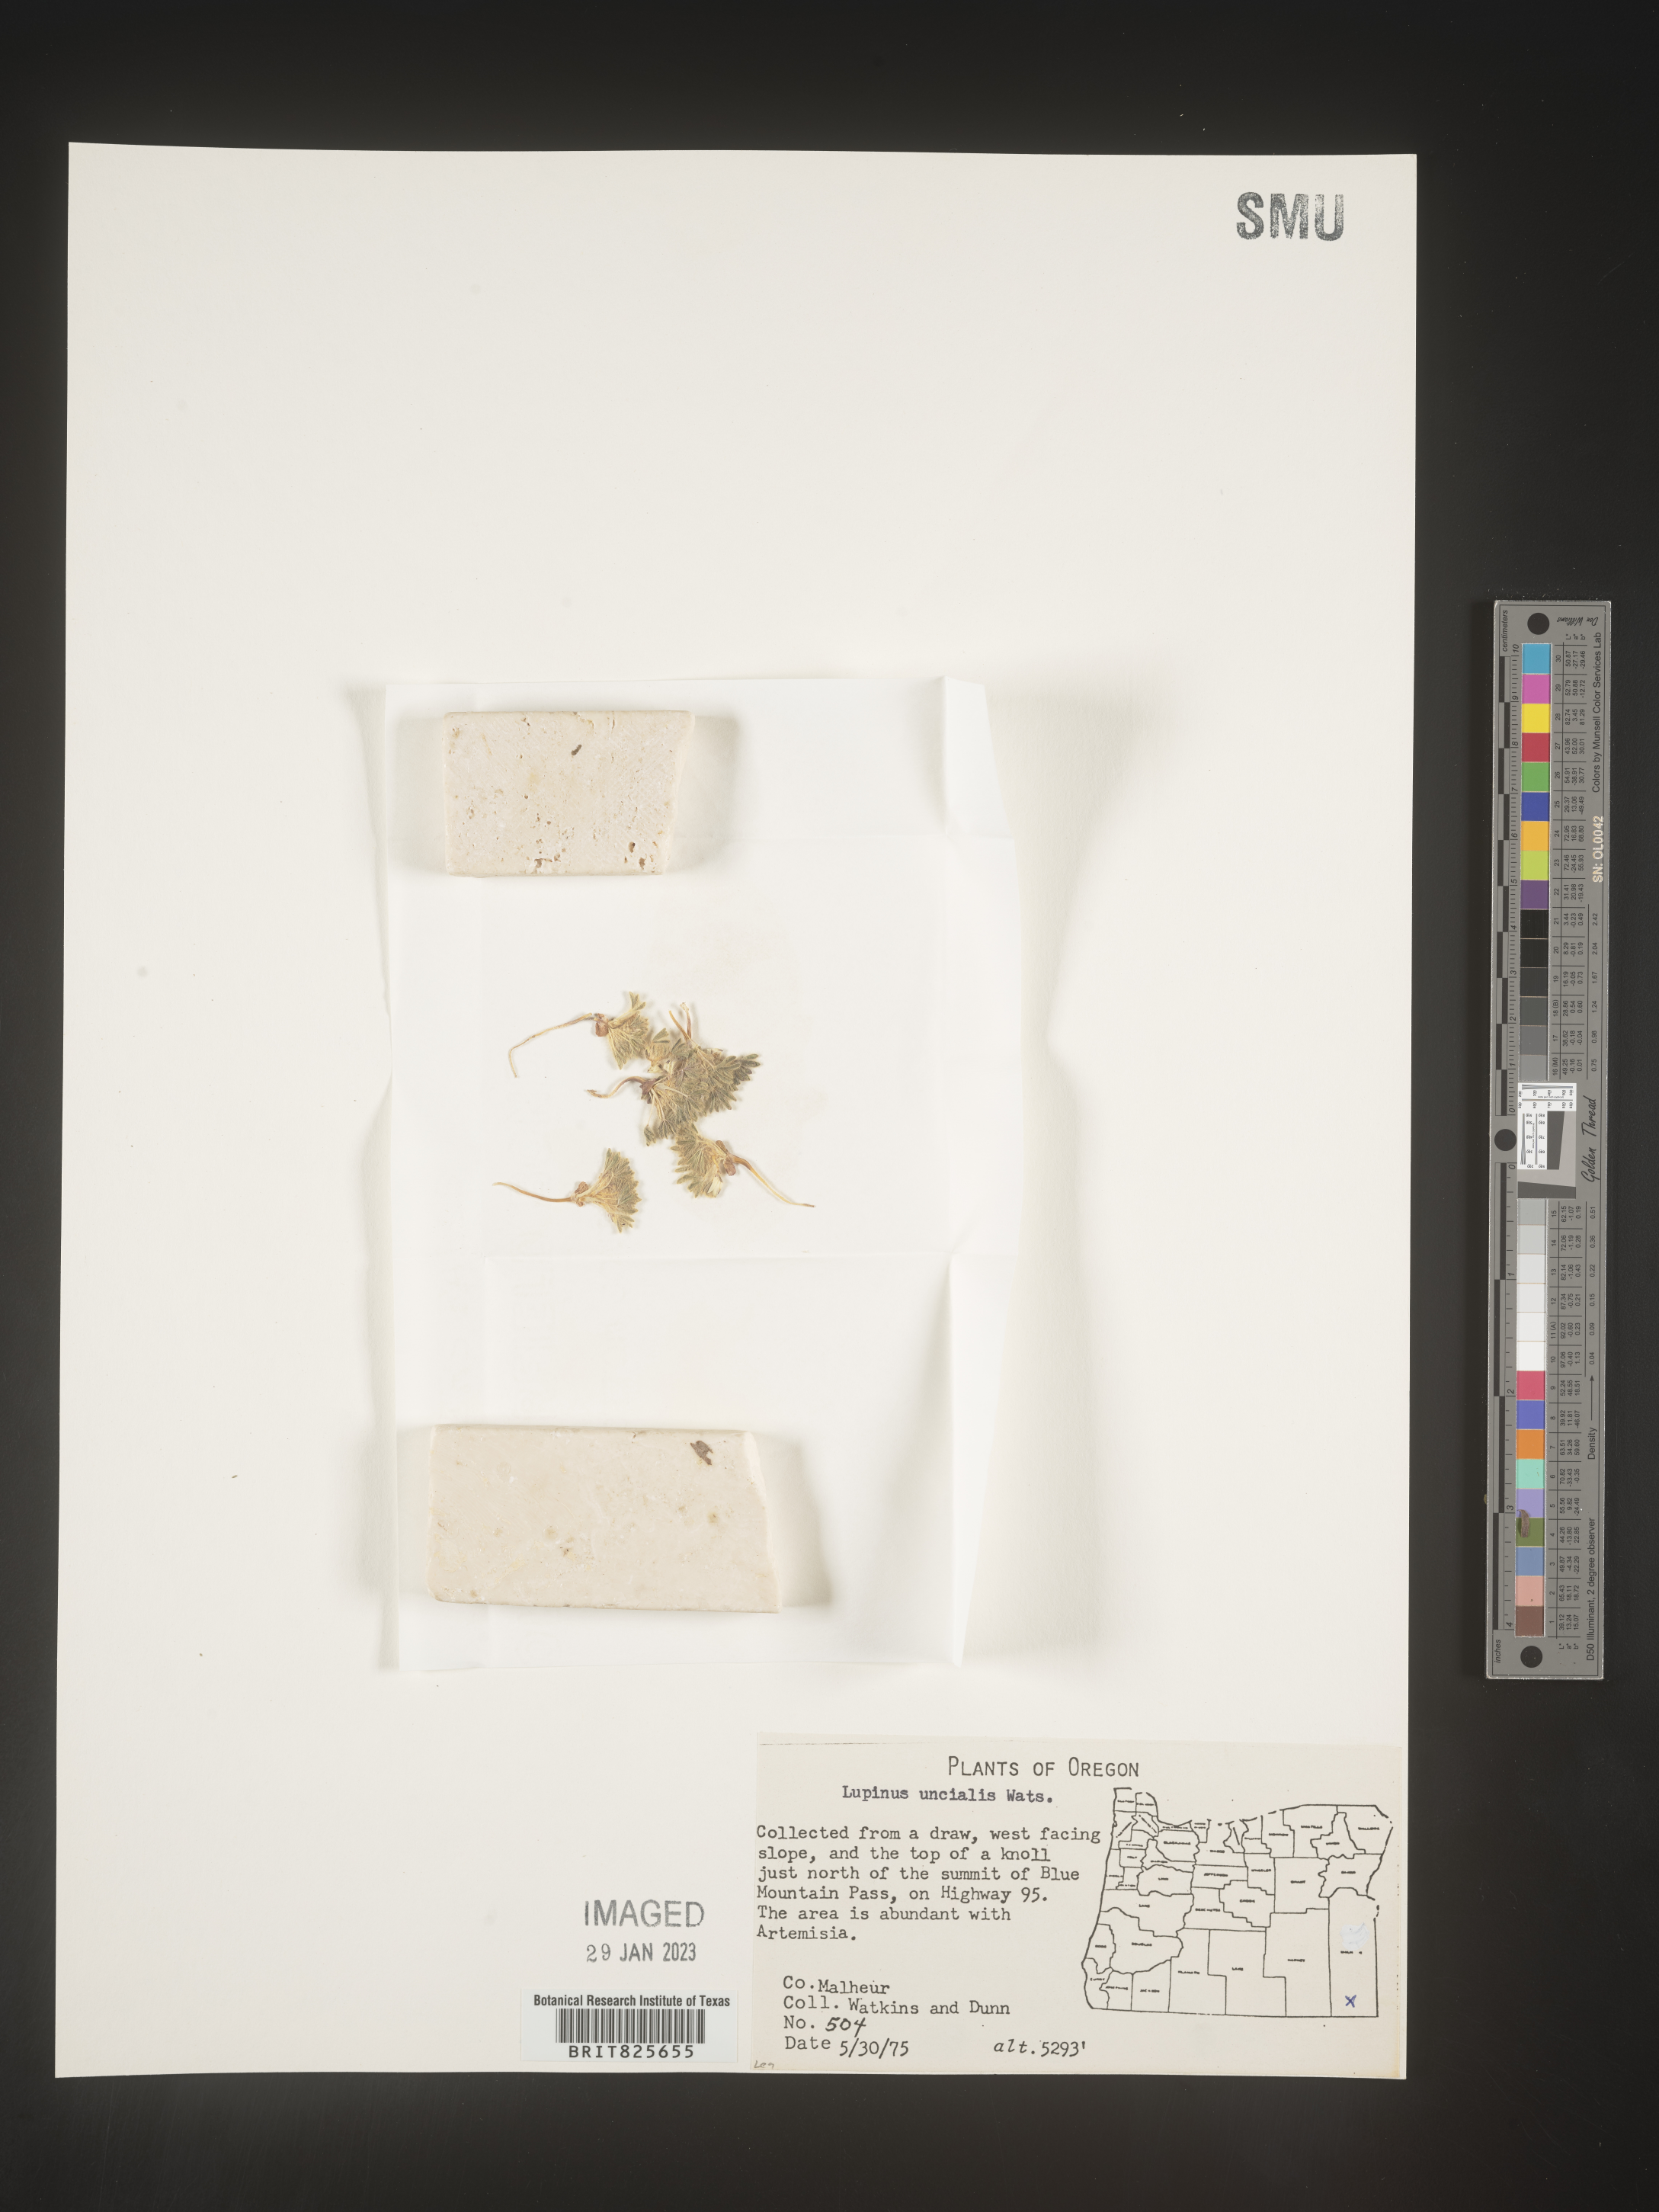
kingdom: Plantae
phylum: Tracheophyta
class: Magnoliopsida
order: Fabales
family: Fabaceae
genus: Lupinus
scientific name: Lupinus
